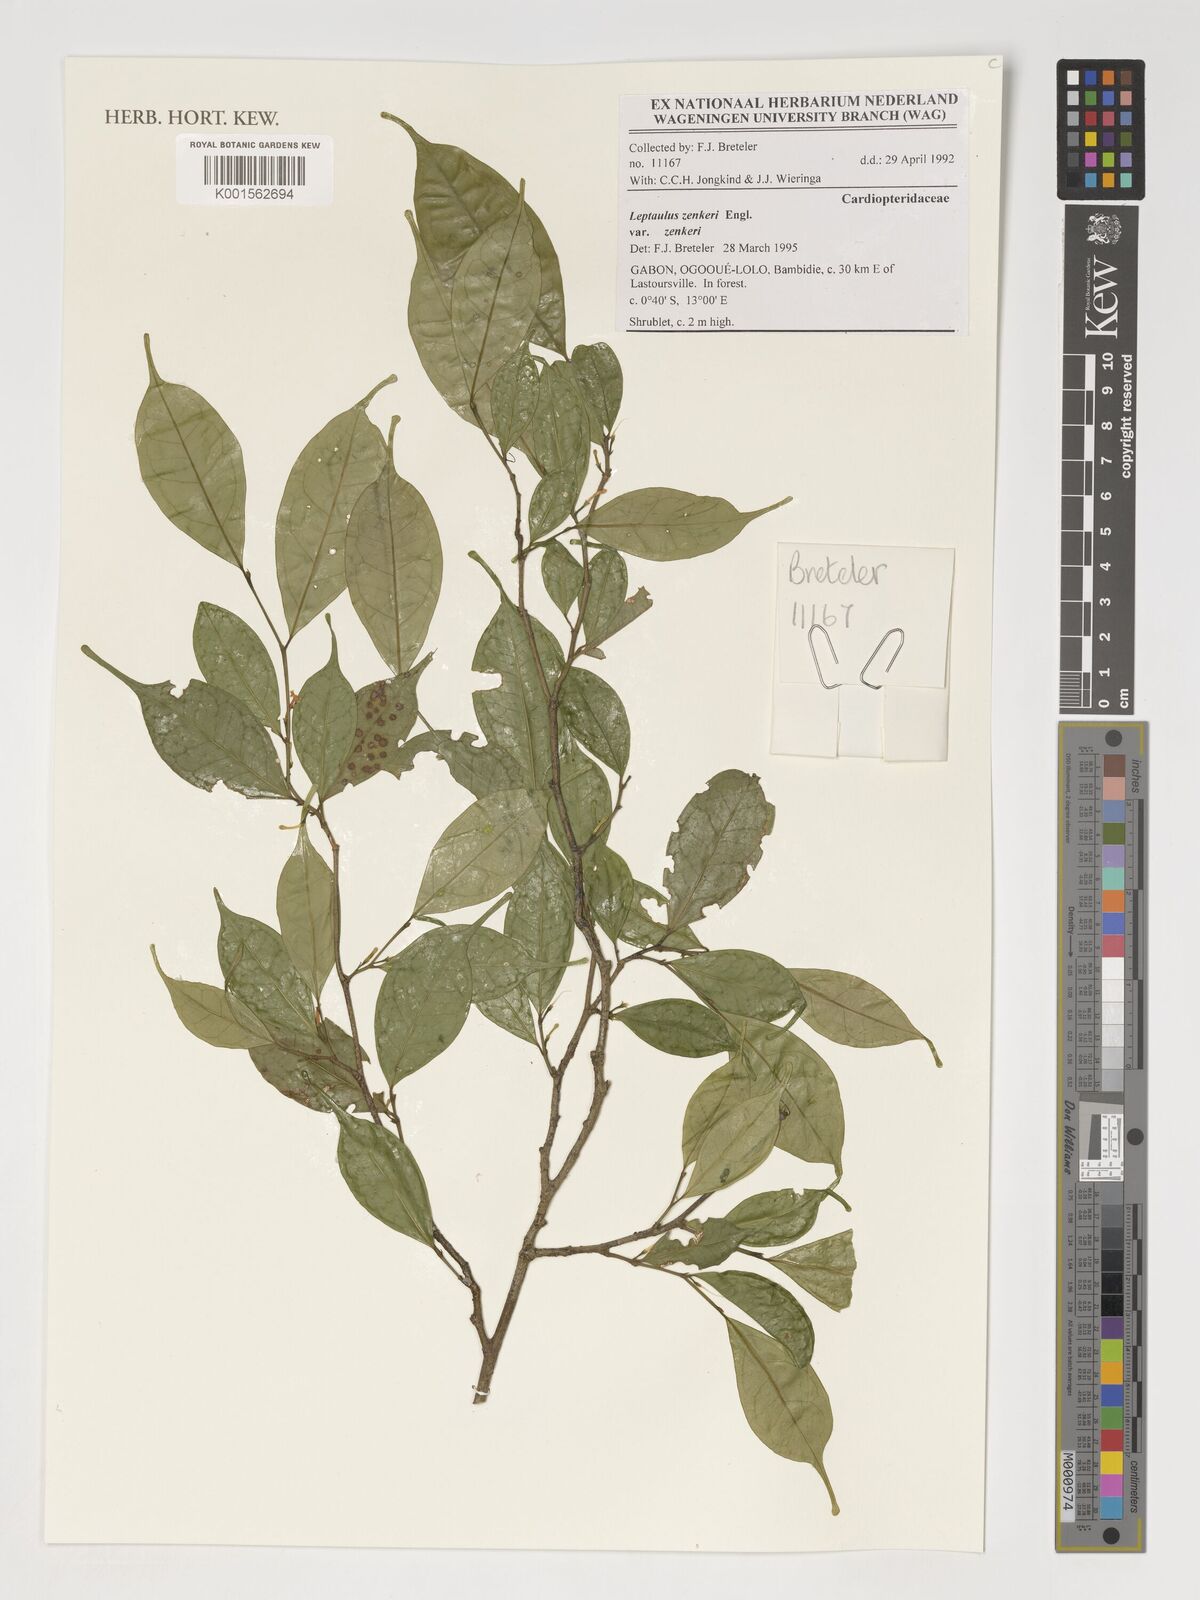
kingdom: Plantae
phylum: Tracheophyta
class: Magnoliopsida
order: Cardiopteridales
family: Cardiopteridaceae
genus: Leptaulus
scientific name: Leptaulus congolanus
